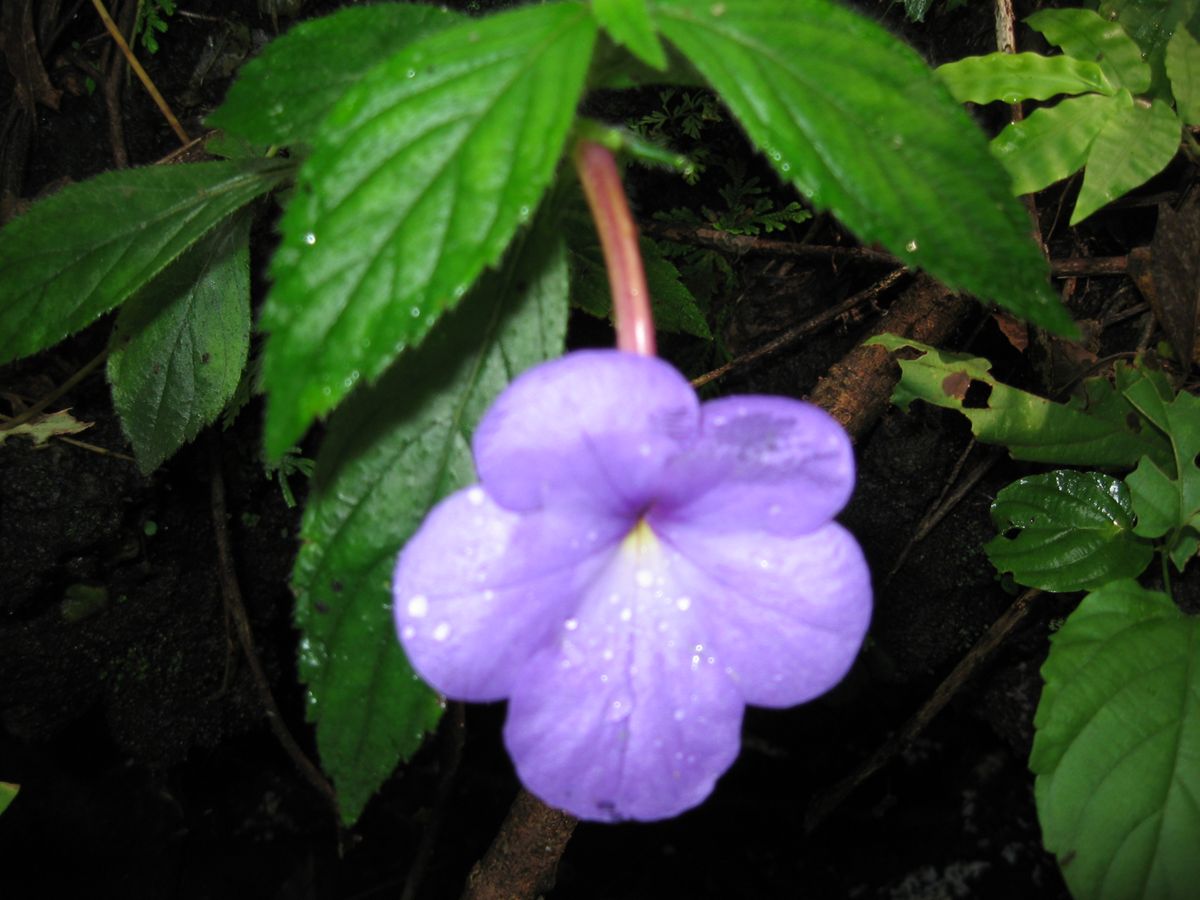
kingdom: Plantae
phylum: Tracheophyta
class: Magnoliopsida
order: Lamiales
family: Gesneriaceae
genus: Achimenes
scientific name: Achimenes longiflora
